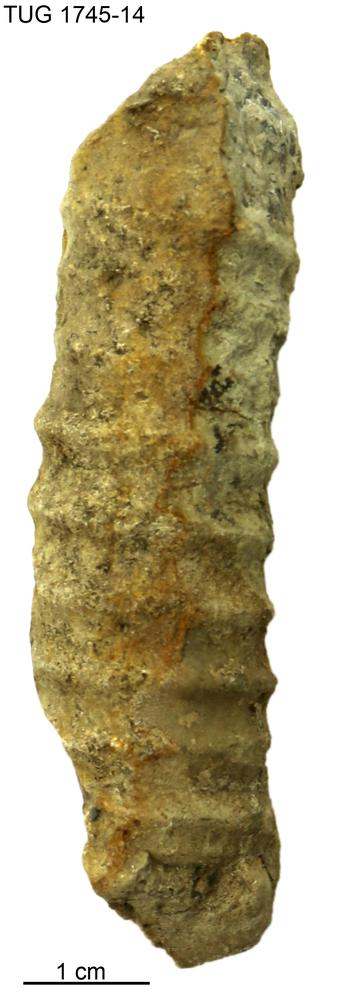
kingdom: Animalia
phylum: Mollusca
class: Cephalopoda
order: Orthocerida
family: Pseudorthoceratidae
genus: Spyroceras
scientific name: Spyroceras
